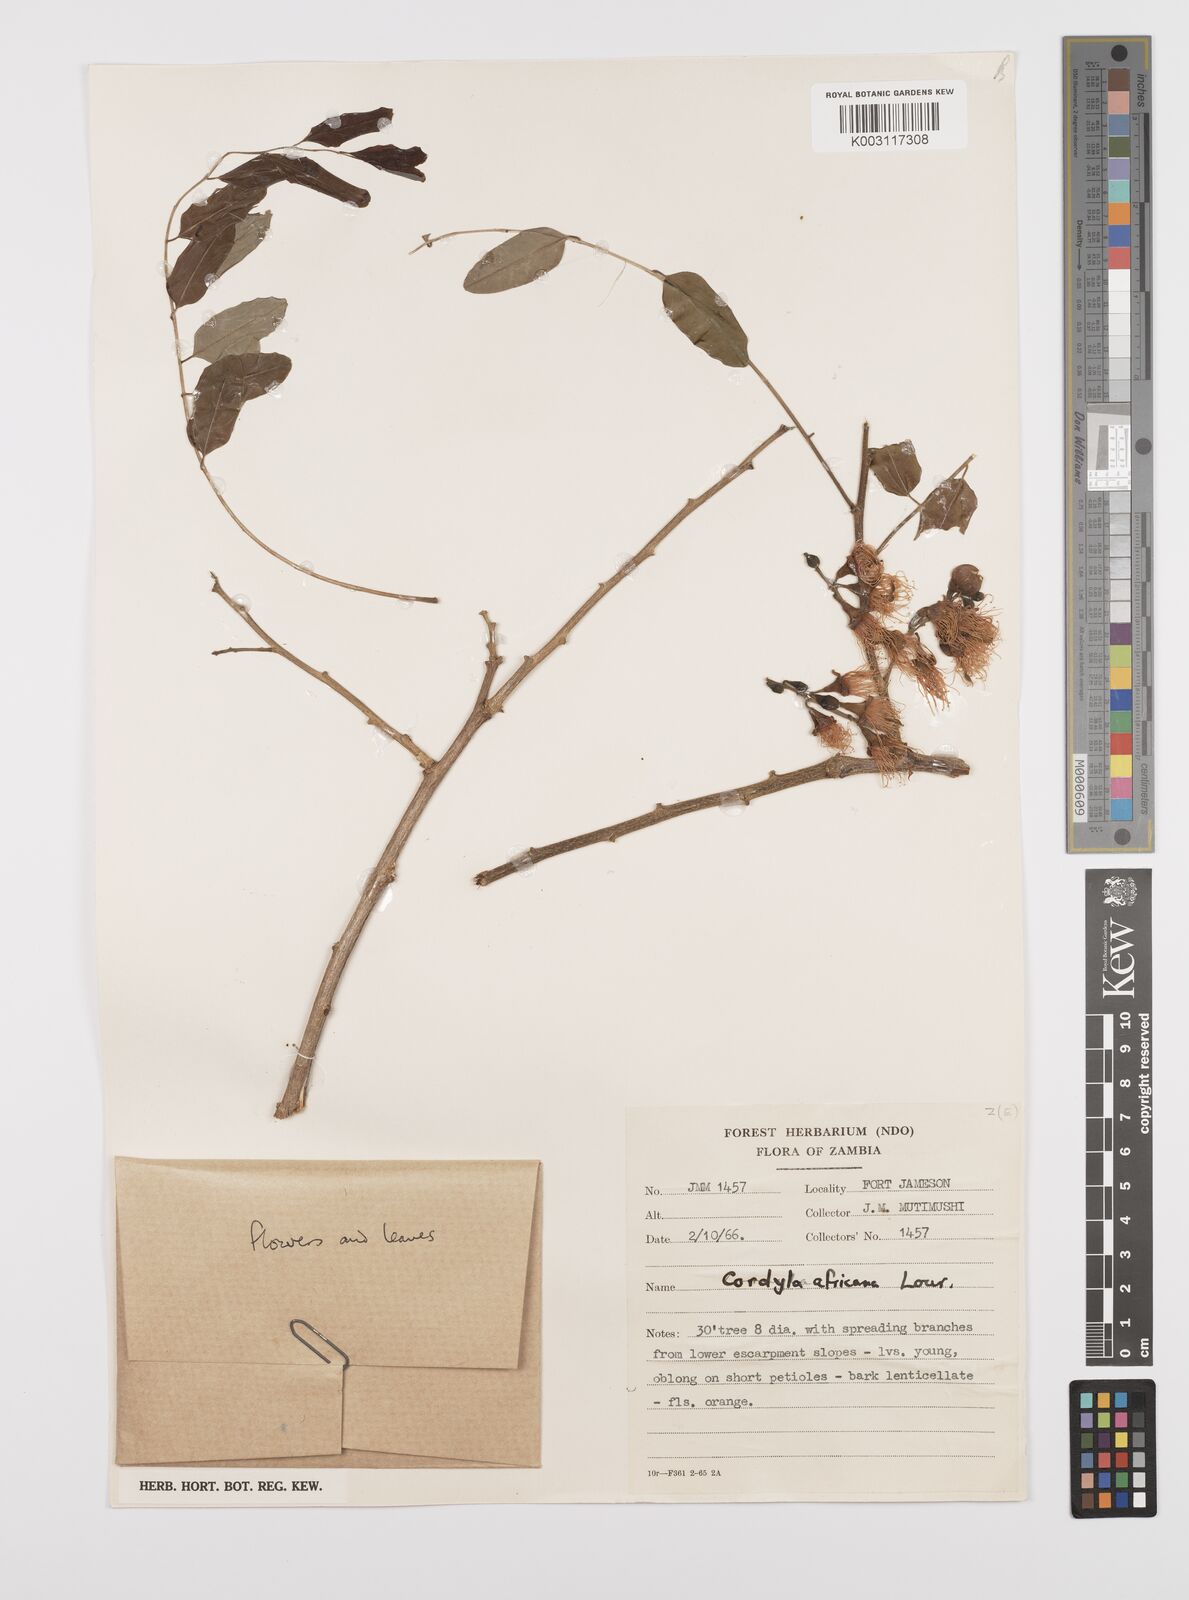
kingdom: Plantae
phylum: Tracheophyta
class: Magnoliopsida
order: Fabales
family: Fabaceae
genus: Cordyla
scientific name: Cordyla africana
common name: Wild mango
